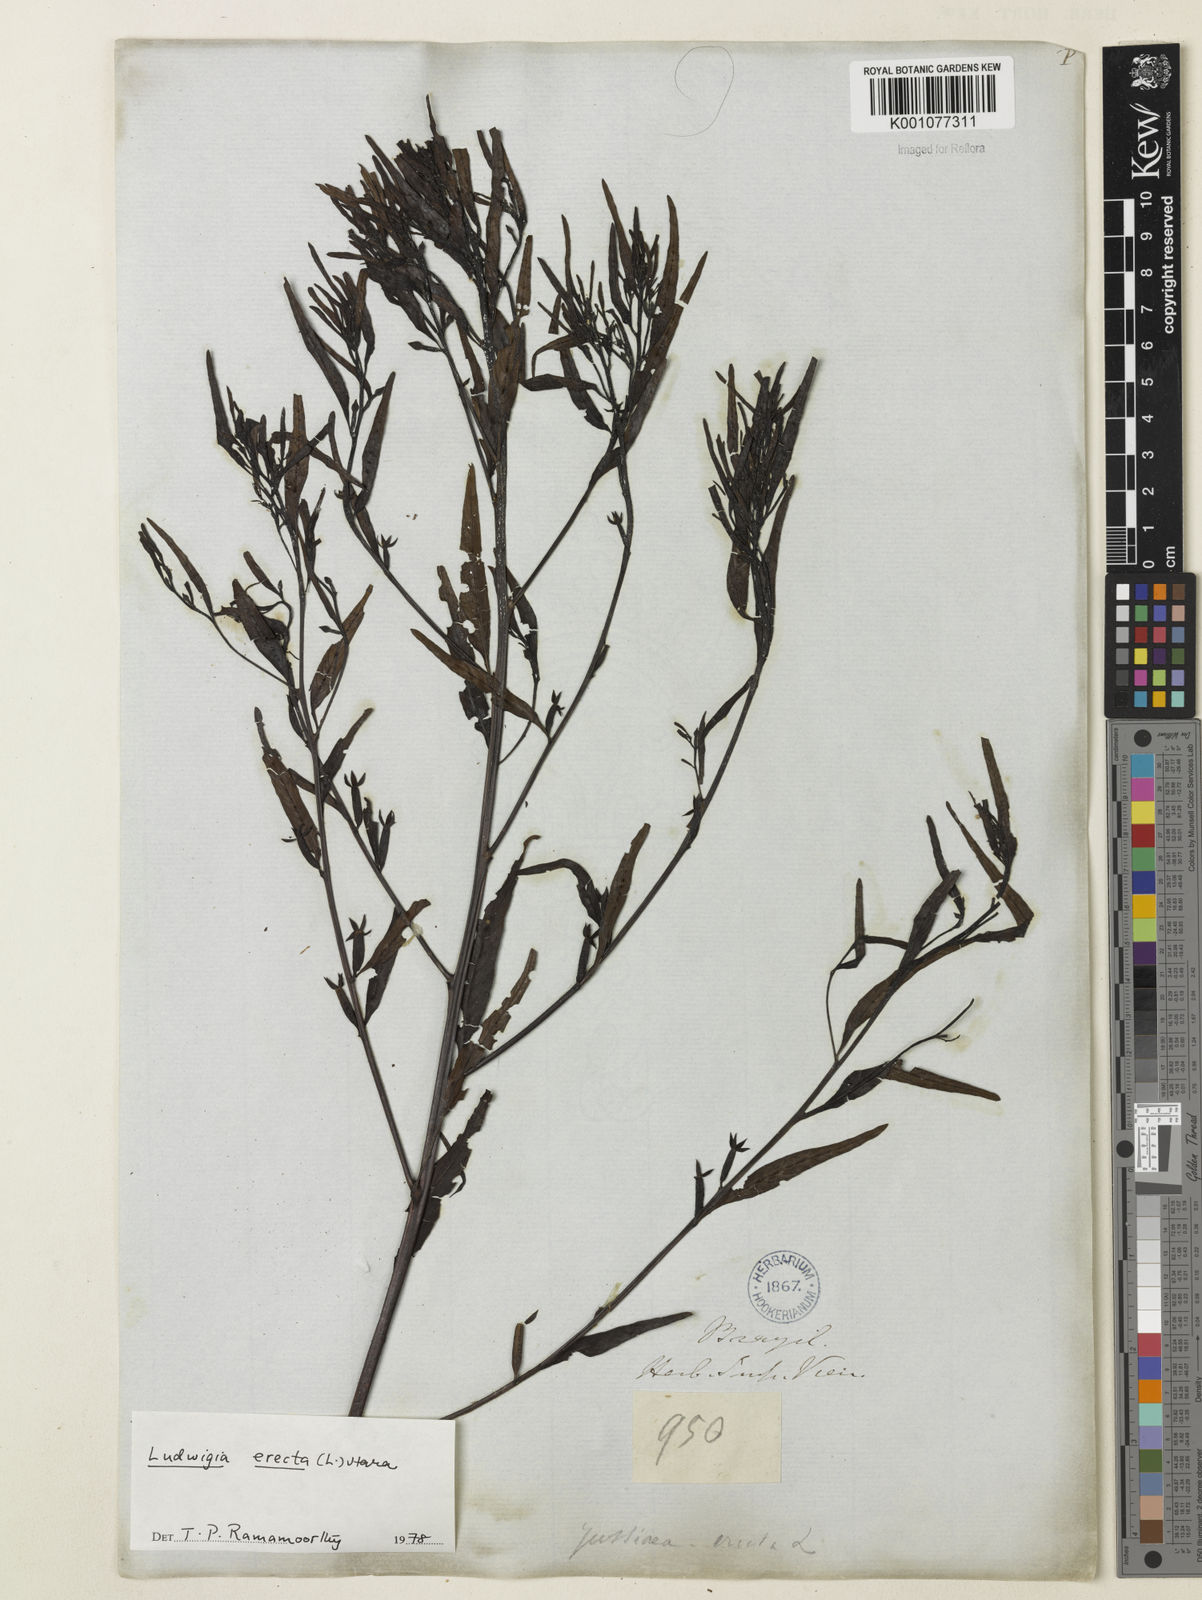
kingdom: Plantae
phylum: Tracheophyta
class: Magnoliopsida
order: Myrtales
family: Onagraceae
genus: Ludwigia
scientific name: Ludwigia erecta
